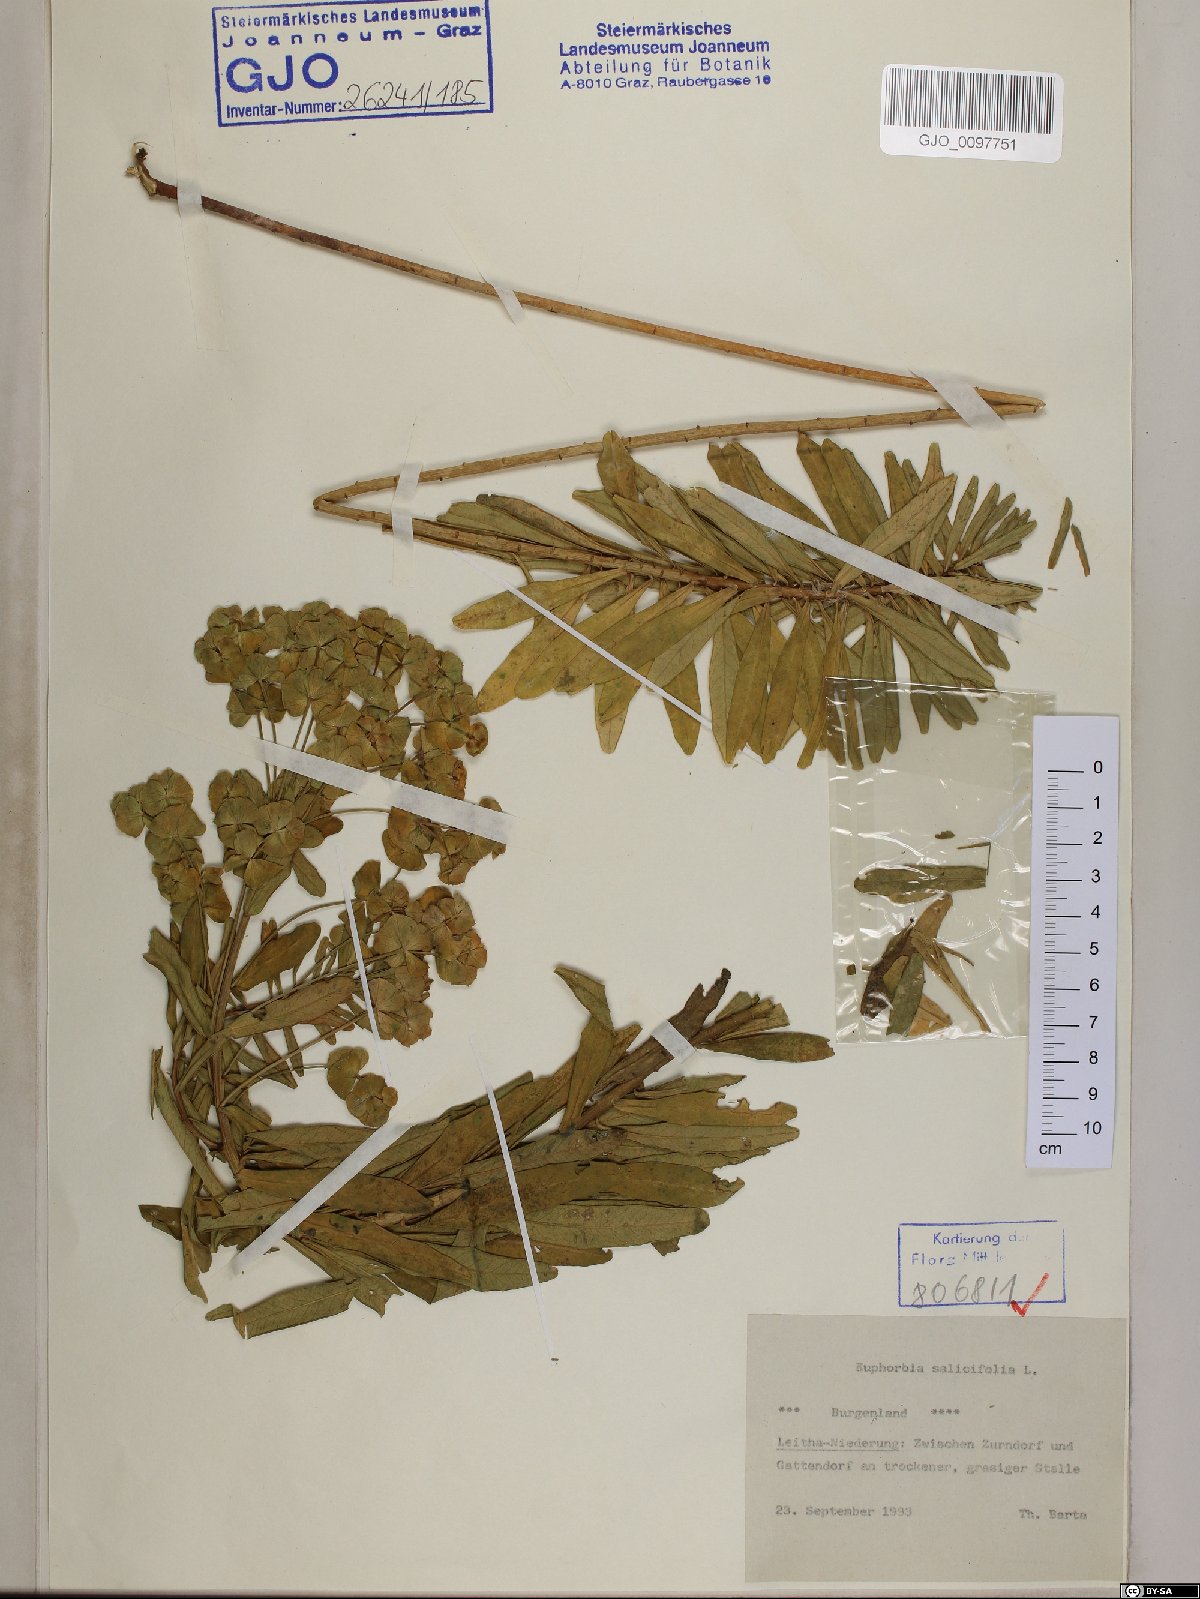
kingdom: Plantae
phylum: Tracheophyta
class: Magnoliopsida
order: Malpighiales
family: Euphorbiaceae
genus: Euphorbia
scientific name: Euphorbia salicifolia
